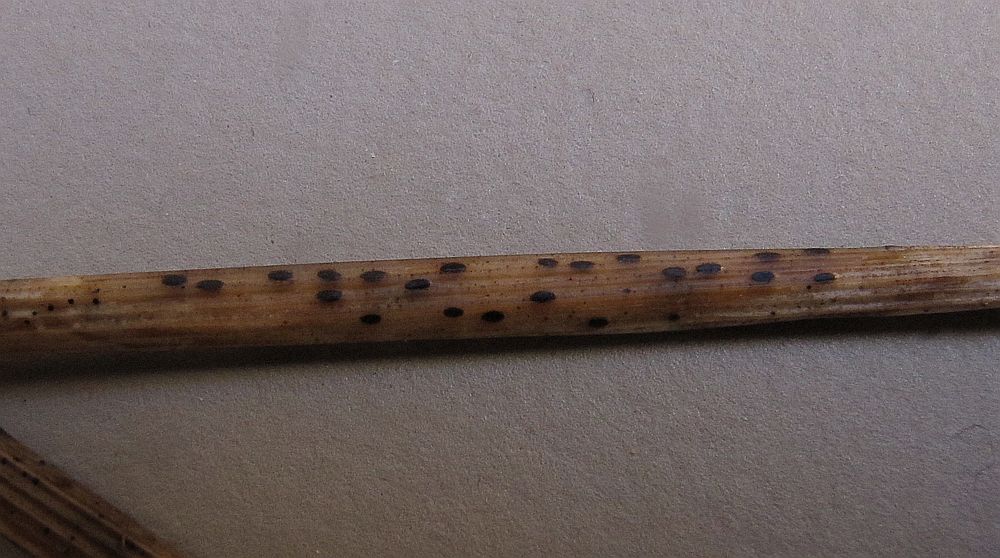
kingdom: Fungi
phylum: Ascomycota
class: Leotiomycetes
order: Rhytismatales
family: Rhytismataceae
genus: Lophodermium
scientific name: Lophodermium alpinum
